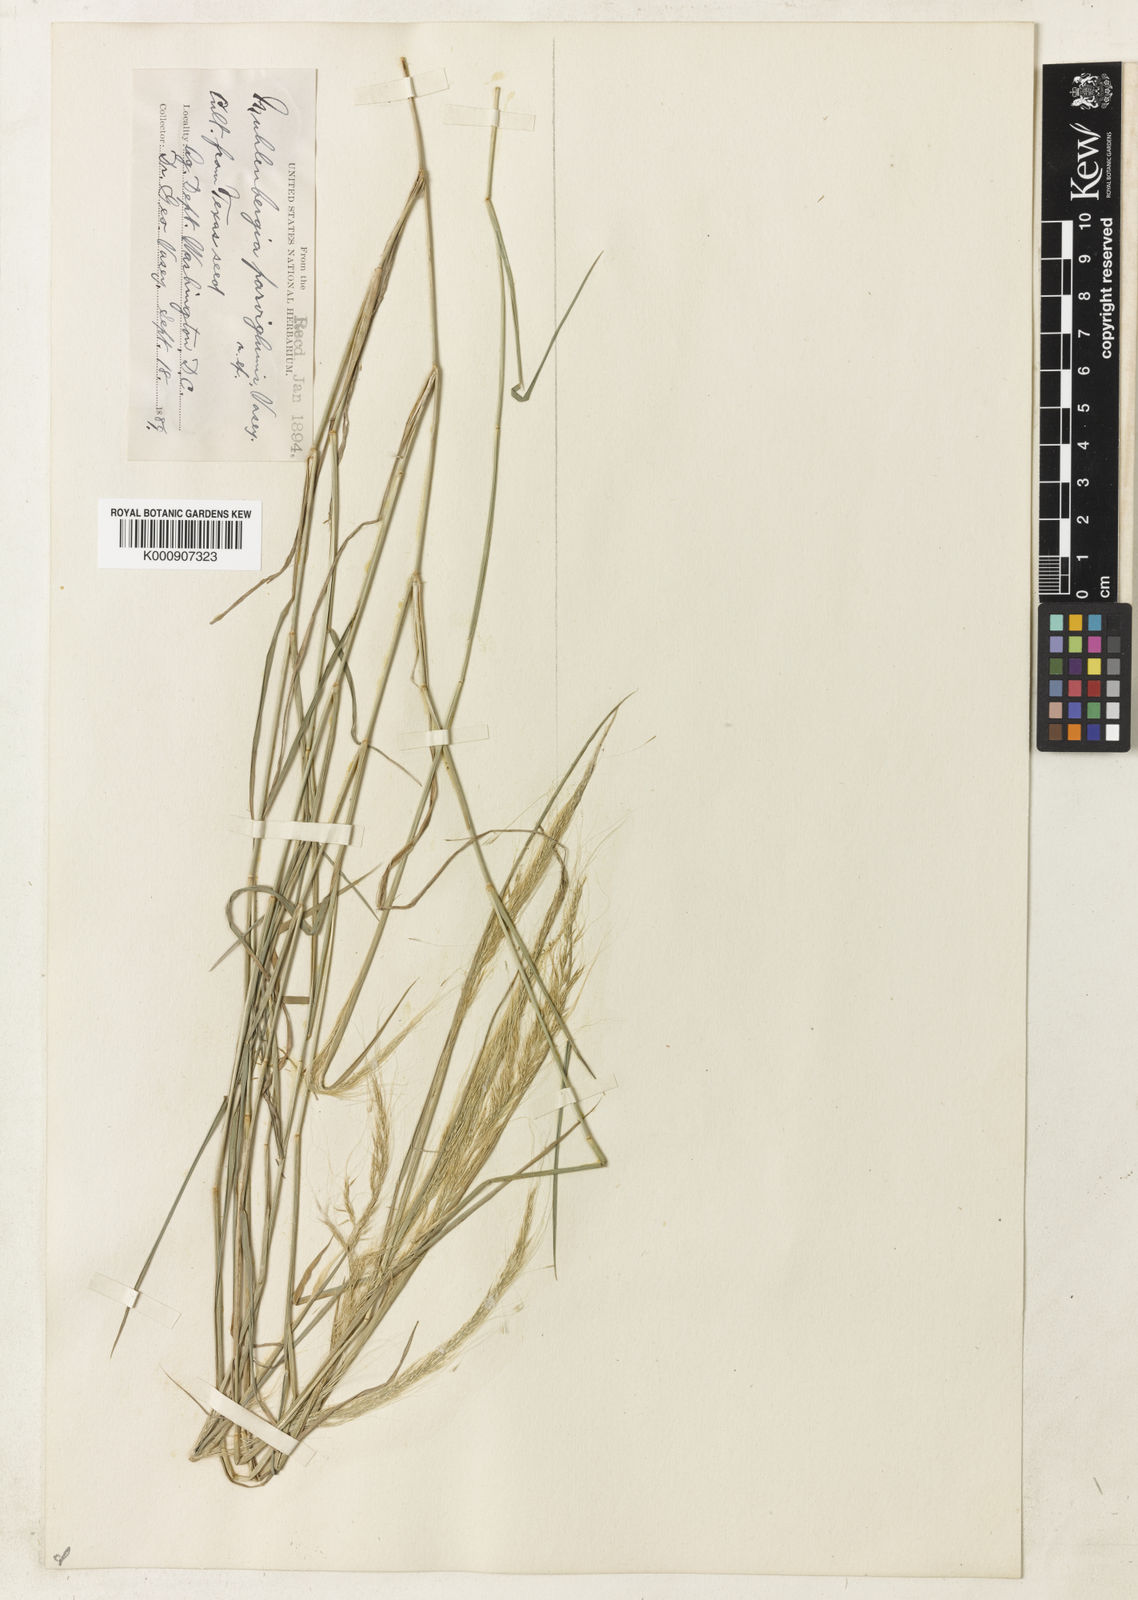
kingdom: Plantae
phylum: Tracheophyta
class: Liliopsida
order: Poales
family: Poaceae
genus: Muhlenbergia
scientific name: Muhlenbergia spiciformis
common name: Longawn muhly
